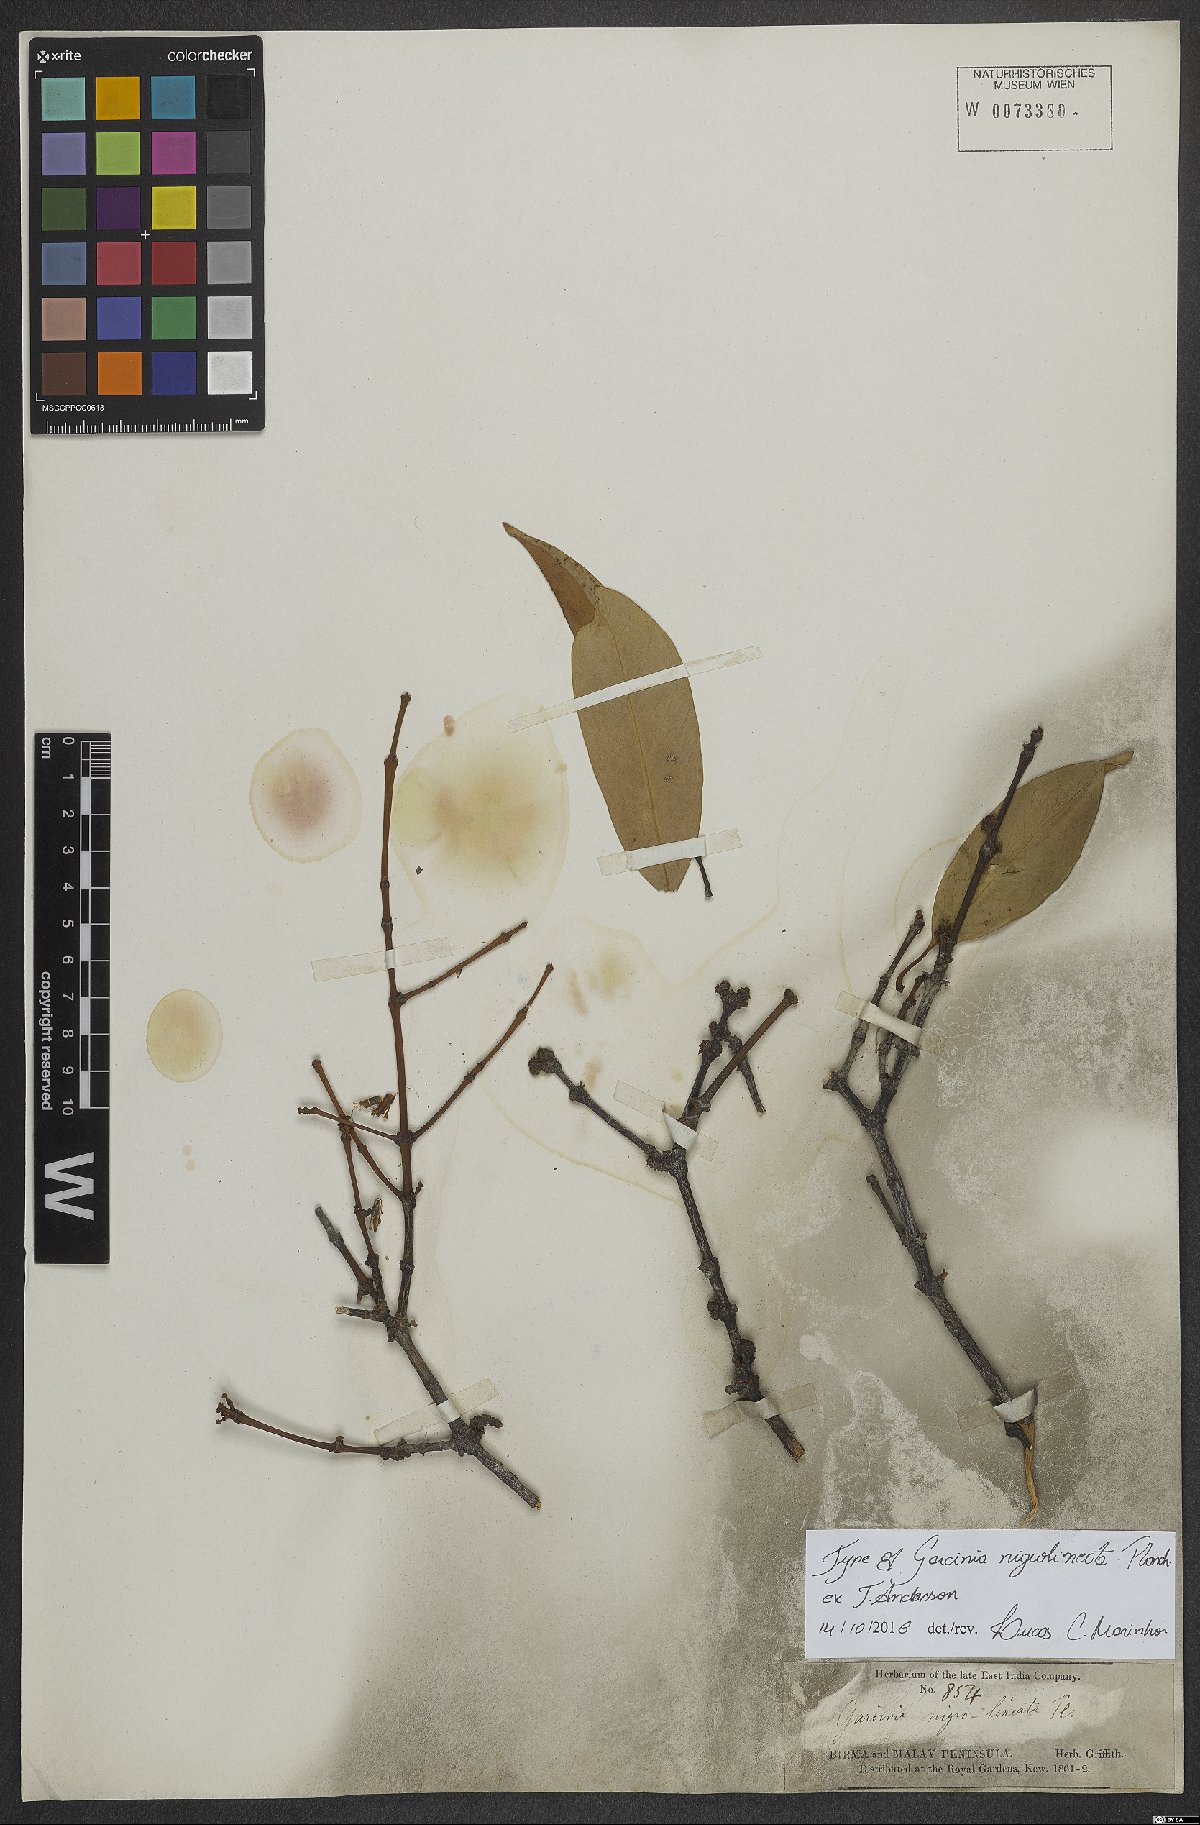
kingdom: Plantae
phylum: Tracheophyta
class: Magnoliopsida
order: Malpighiales
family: Clusiaceae
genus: Garcinia
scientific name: Garcinia nigrolineata
